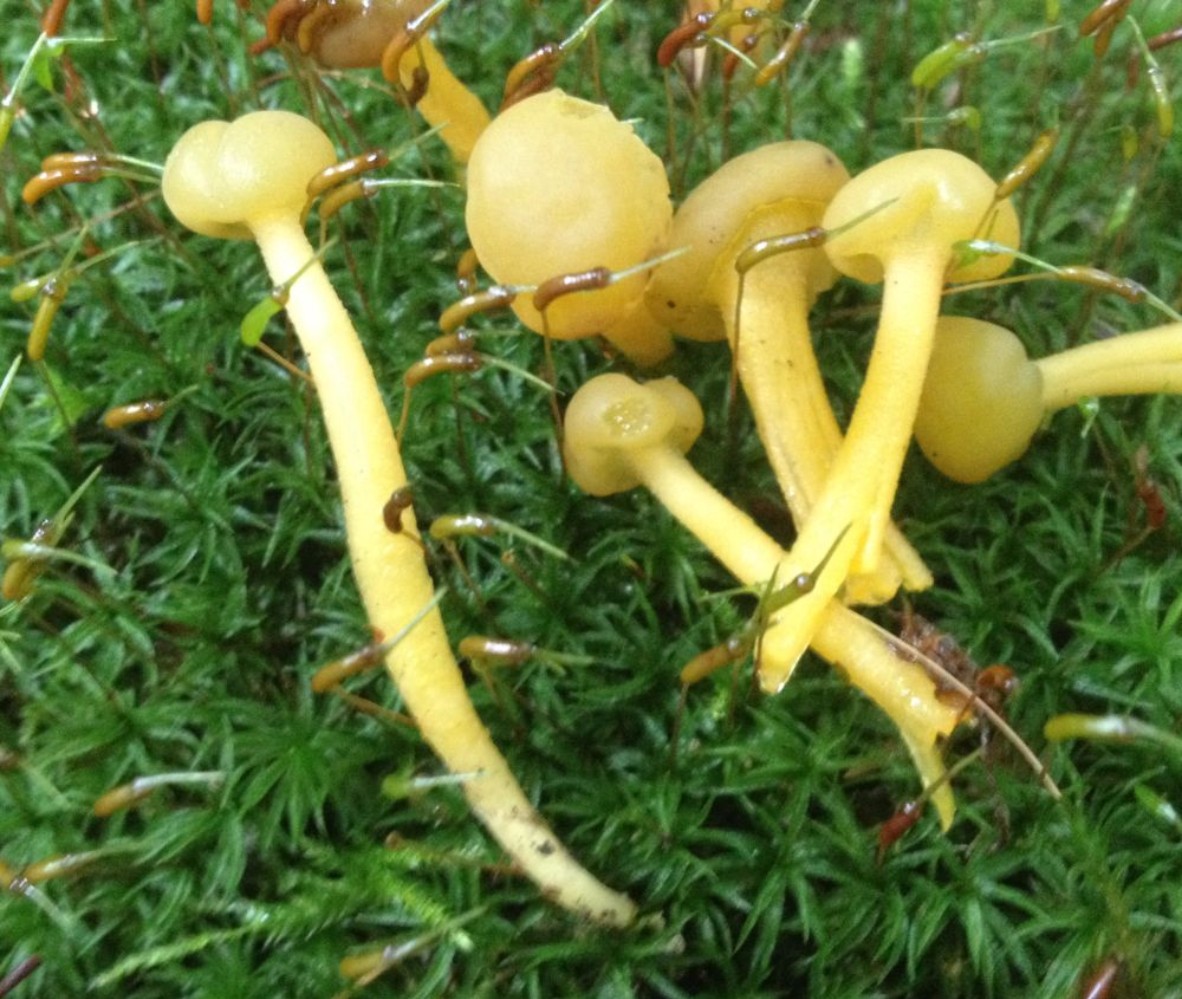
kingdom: Fungi
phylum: Ascomycota
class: Leotiomycetes
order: Leotiales
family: Leotiaceae
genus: Leotia
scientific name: Leotia lubrica
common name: ravsvamp
